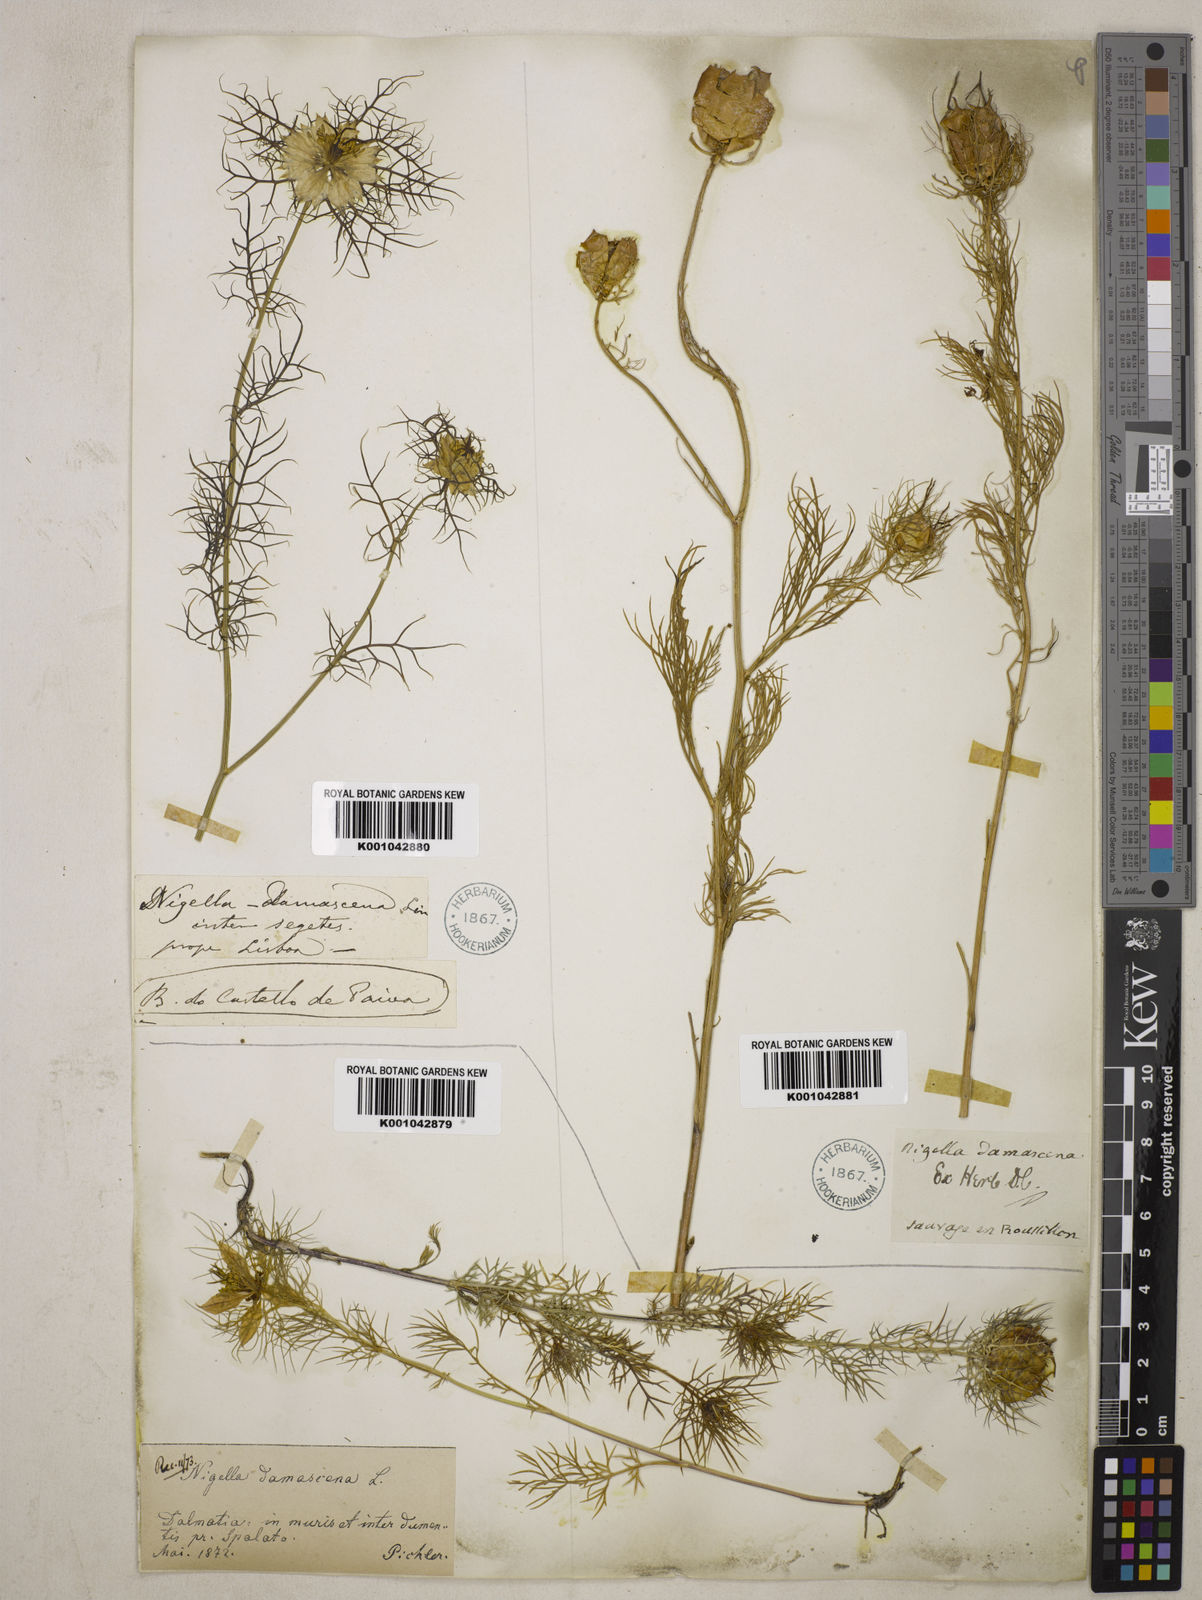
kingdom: Plantae
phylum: Tracheophyta
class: Magnoliopsida
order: Ranunculales
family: Ranunculaceae
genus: Nigella
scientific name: Nigella damascena
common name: Love-in-a-mist
